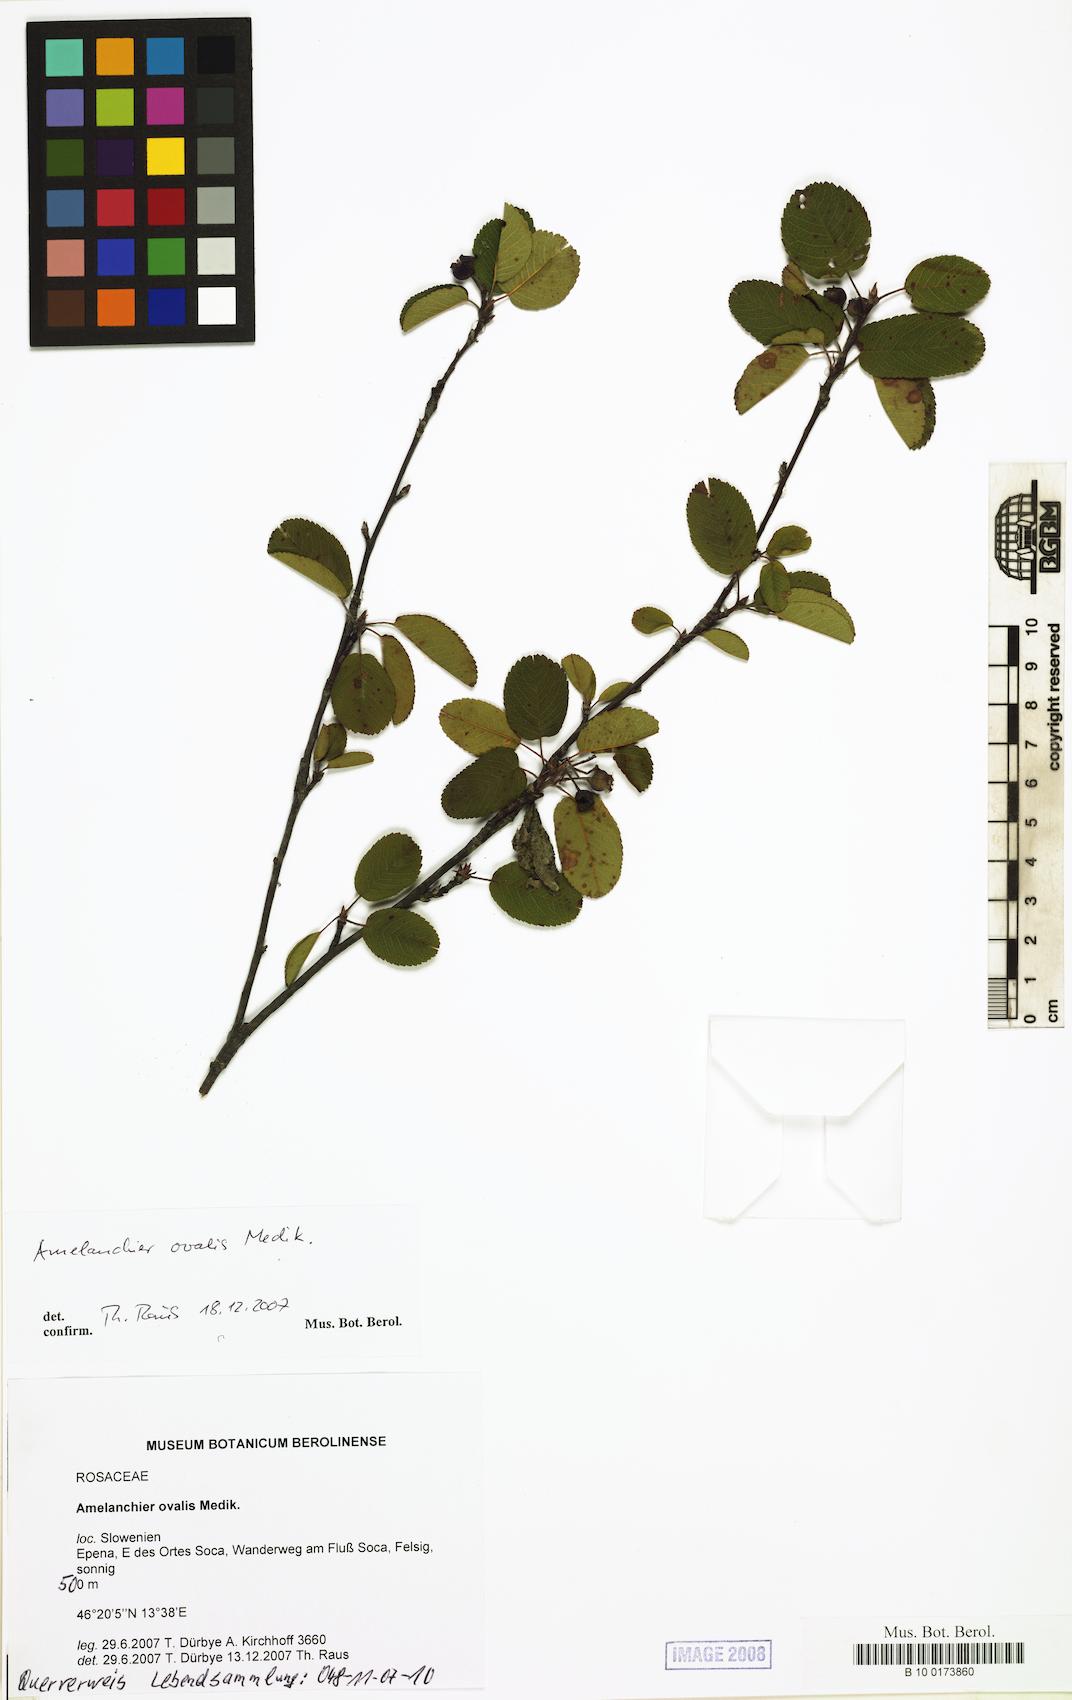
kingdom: Plantae
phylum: Tracheophyta
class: Magnoliopsida
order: Rosales
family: Rosaceae
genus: Amelanchier
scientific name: Amelanchier ovalis
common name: Serviceberry
